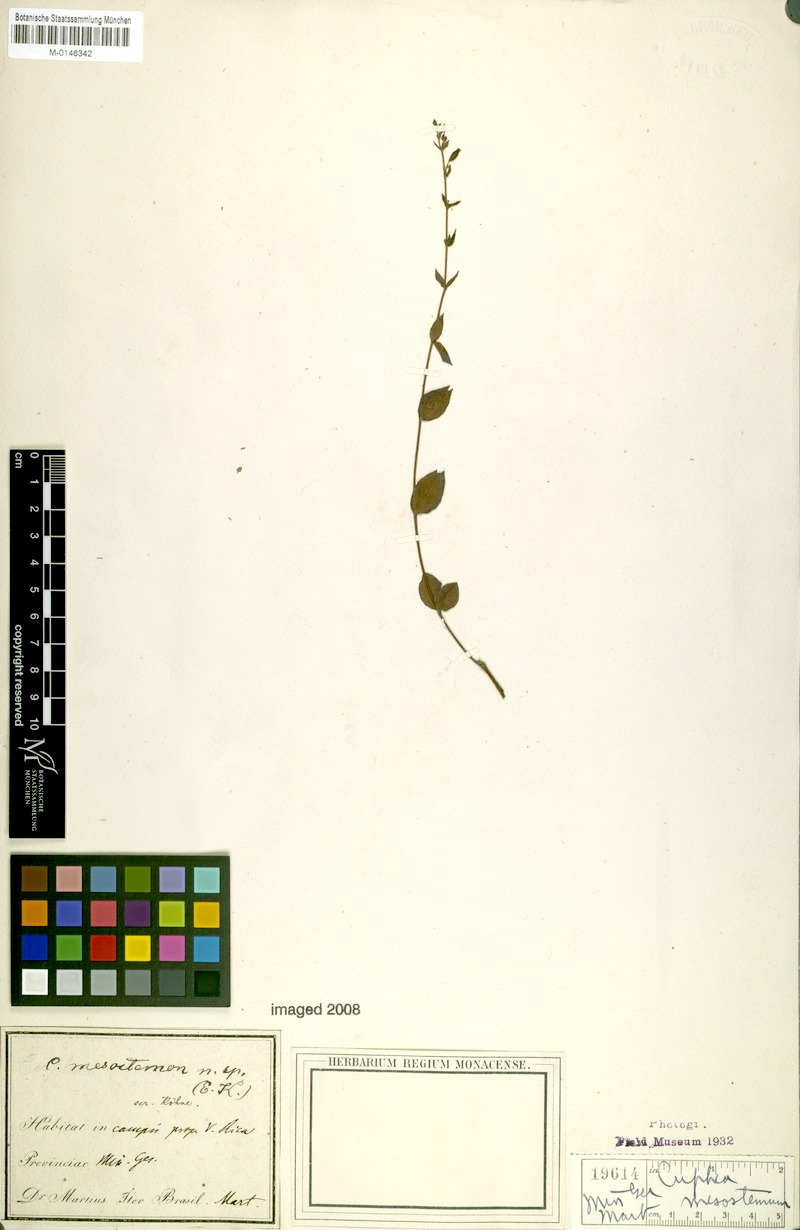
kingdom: Plantae
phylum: Tracheophyta
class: Magnoliopsida
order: Myrtales
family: Lythraceae
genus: Cuphea
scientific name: Cuphea calophylla
